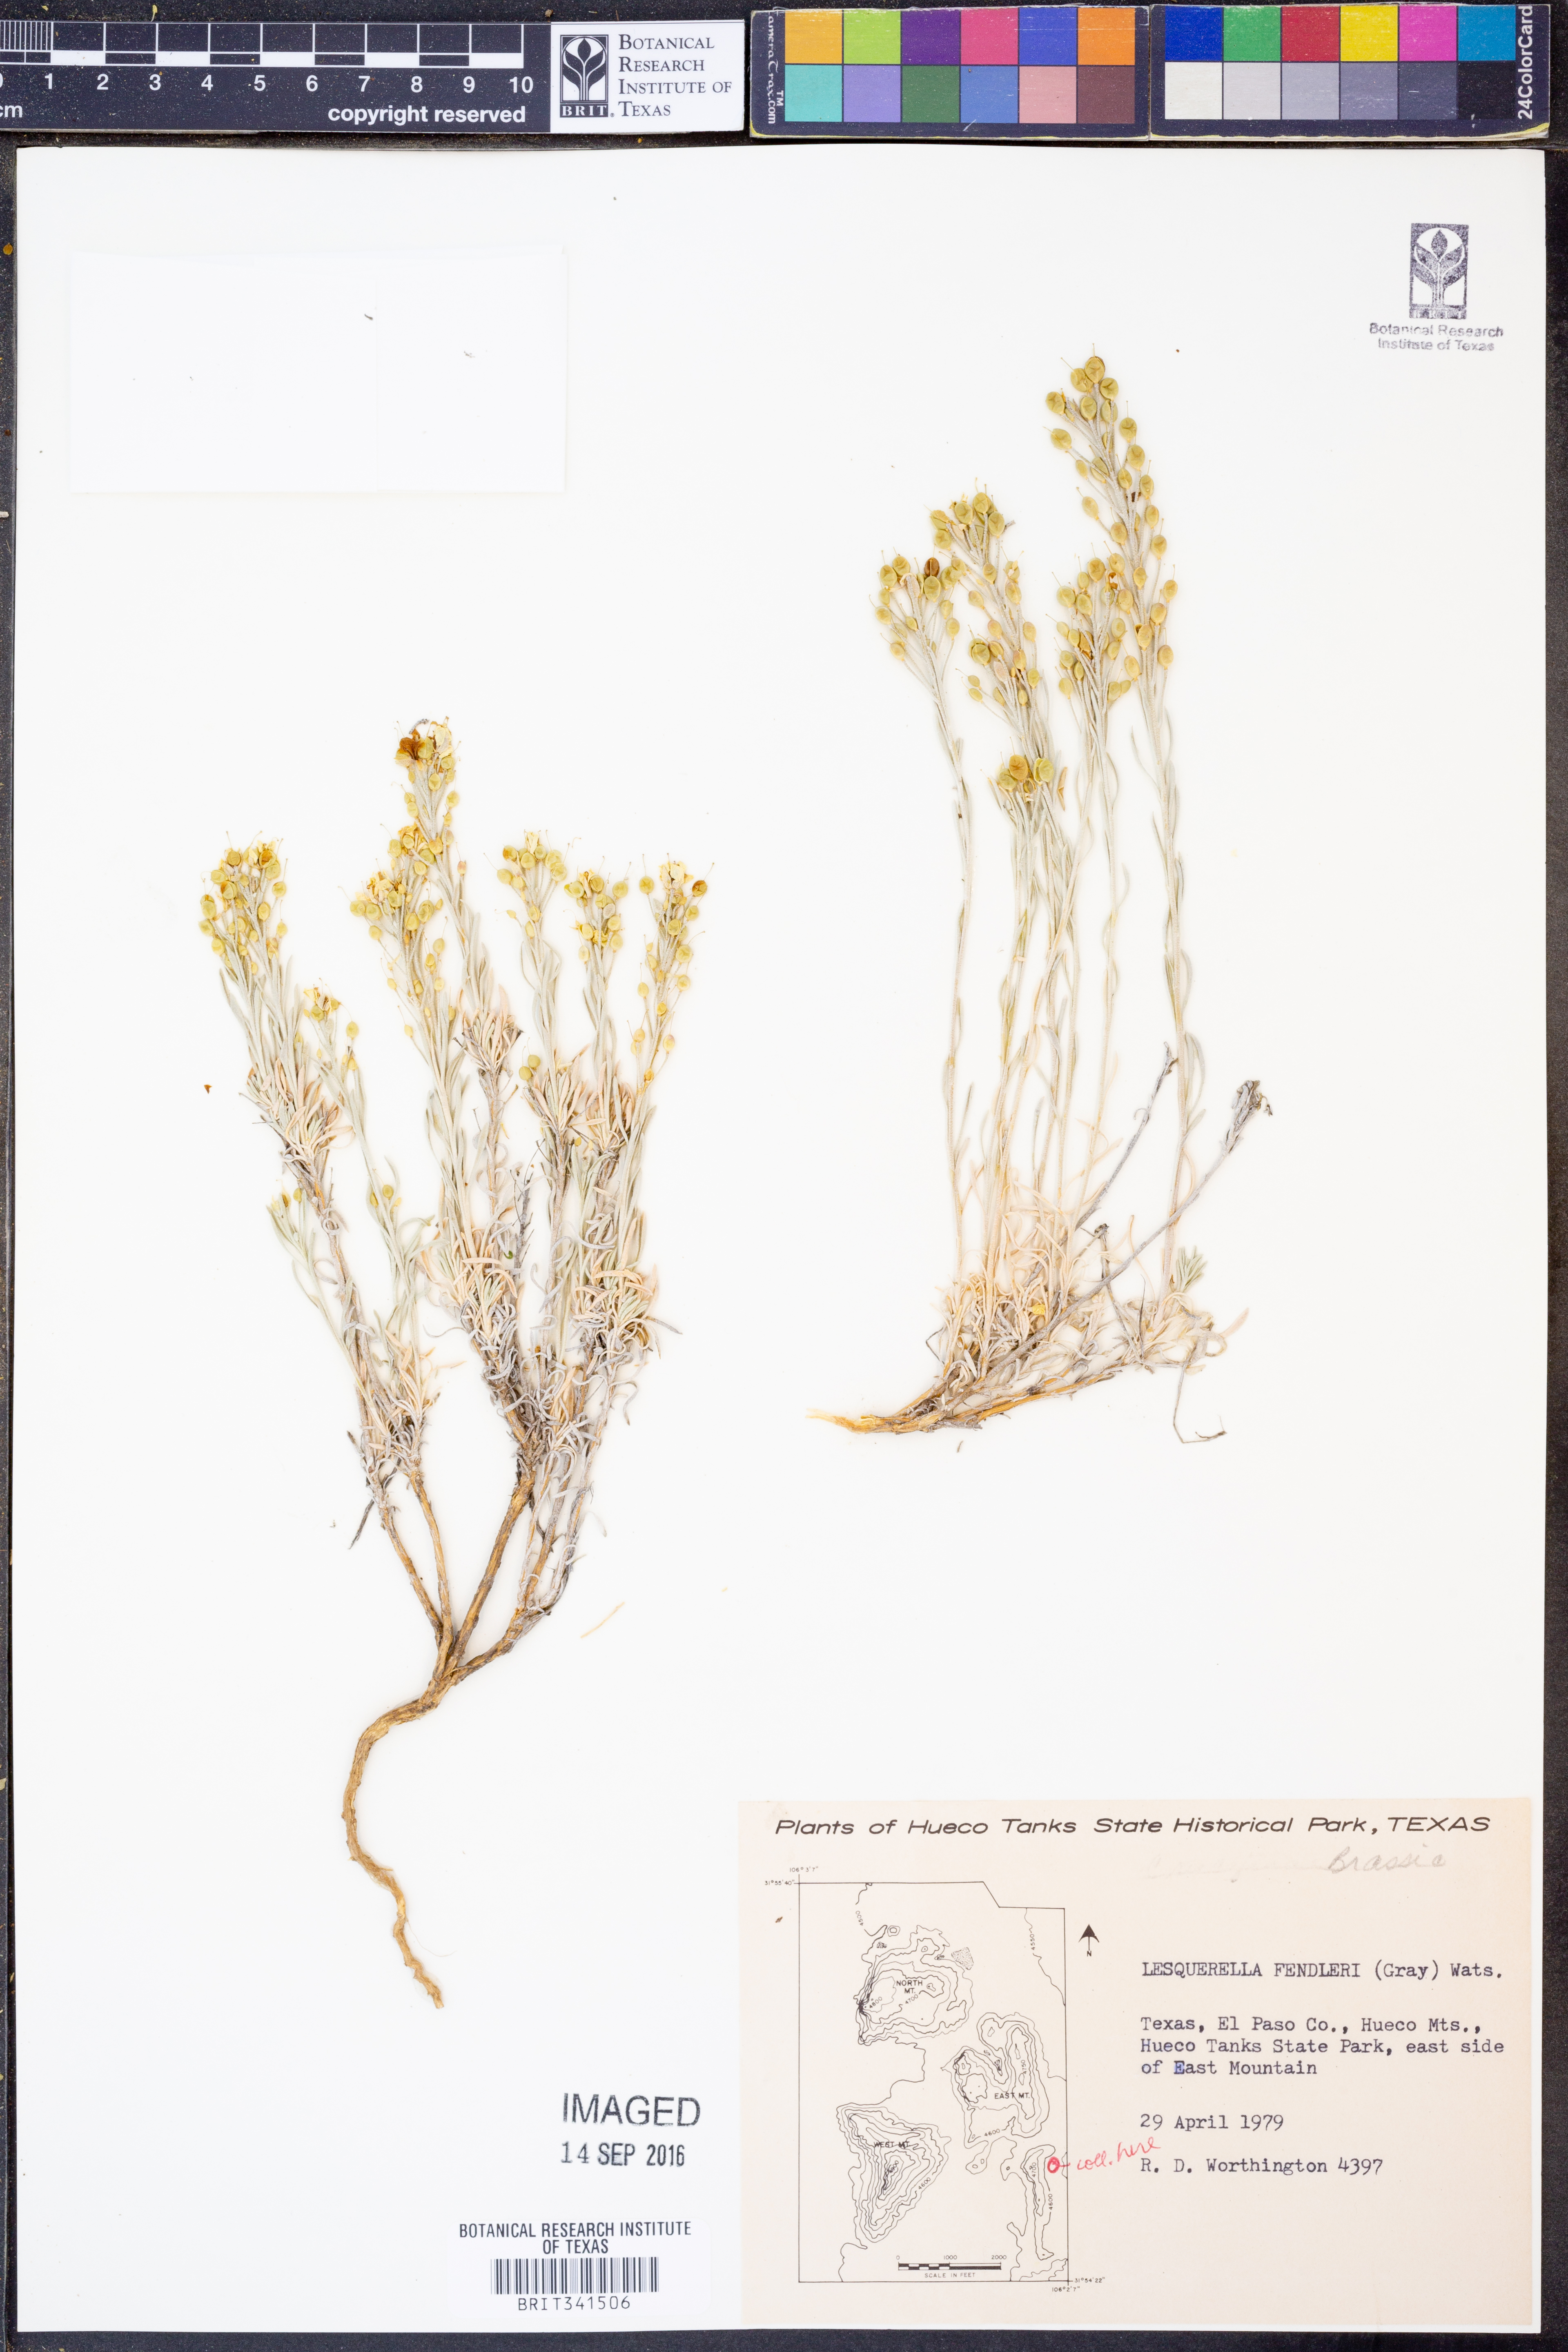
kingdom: Plantae
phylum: Tracheophyta
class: Magnoliopsida
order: Brassicales
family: Brassicaceae
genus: Physaria
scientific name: Physaria fendleri
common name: Fendler's bladderpod
